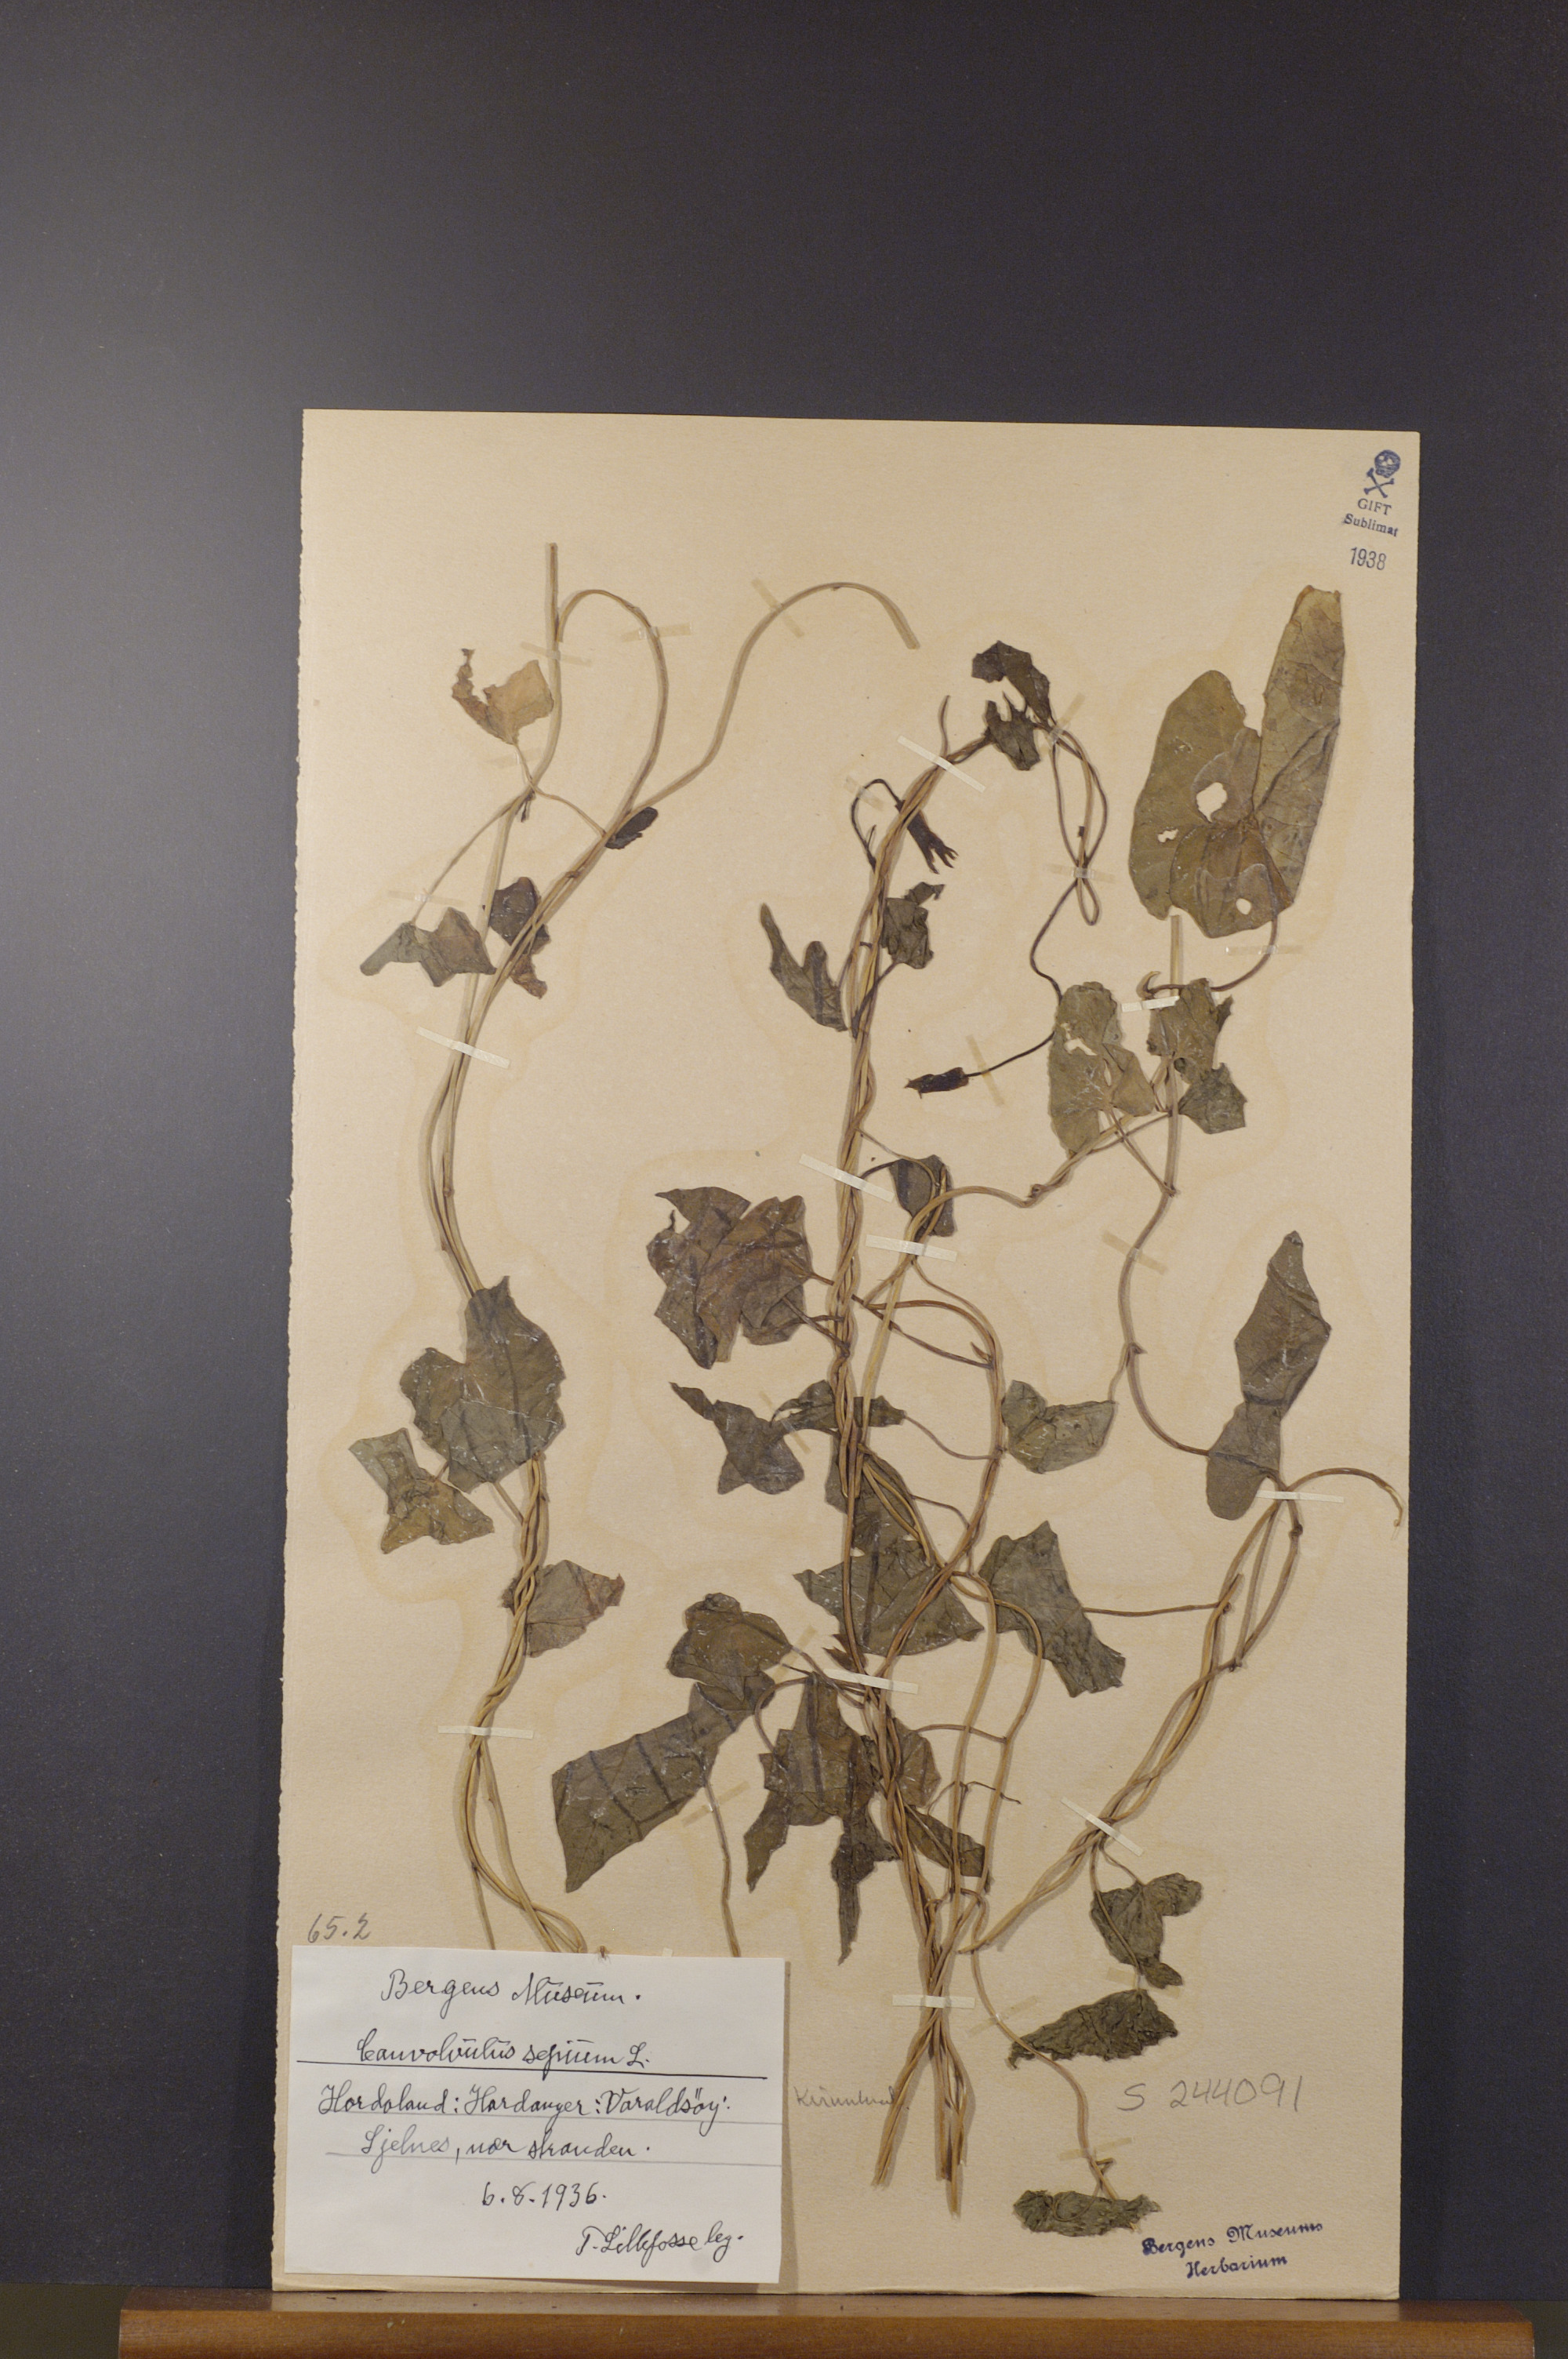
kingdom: Plantae
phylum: Tracheophyta
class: Magnoliopsida
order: Solanales
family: Convolvulaceae
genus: Calystegia
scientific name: Calystegia sepium
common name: Hedge bindweed
